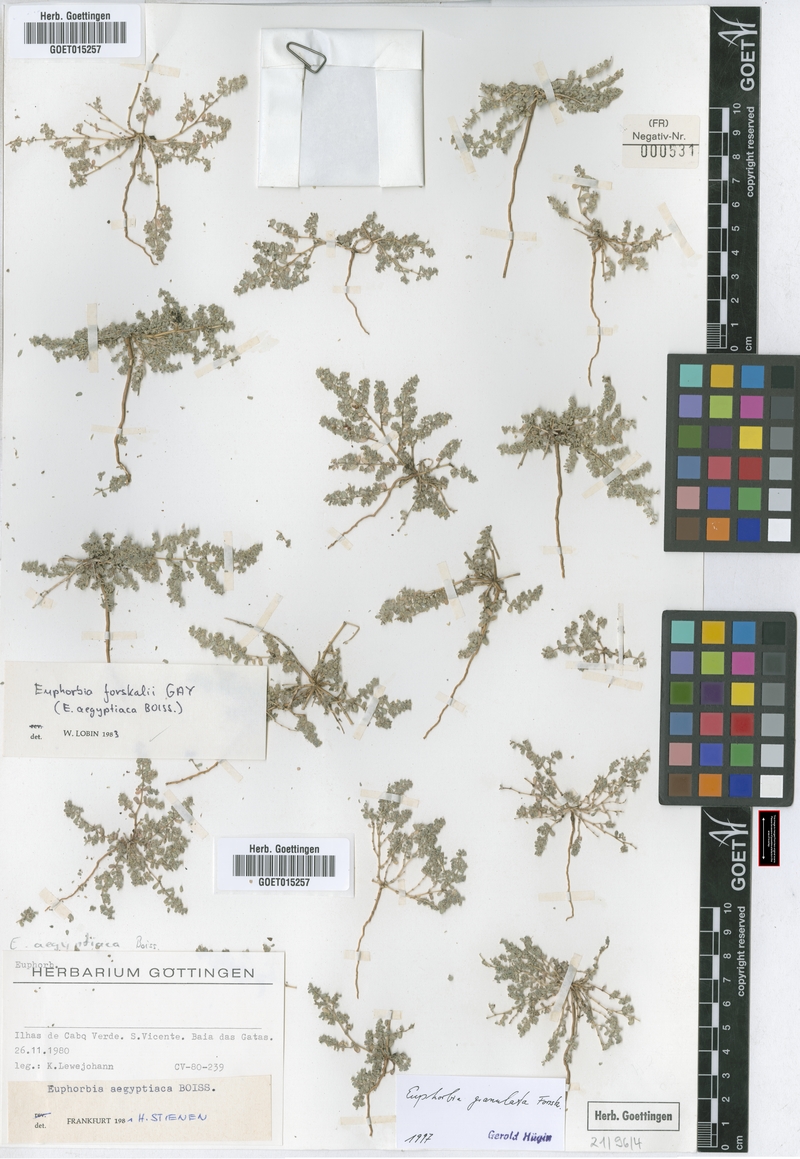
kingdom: Plantae
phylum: Tracheophyta
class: Magnoliopsida
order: Malpighiales
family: Euphorbiaceae
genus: Euphorbia
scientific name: Euphorbia granulata
